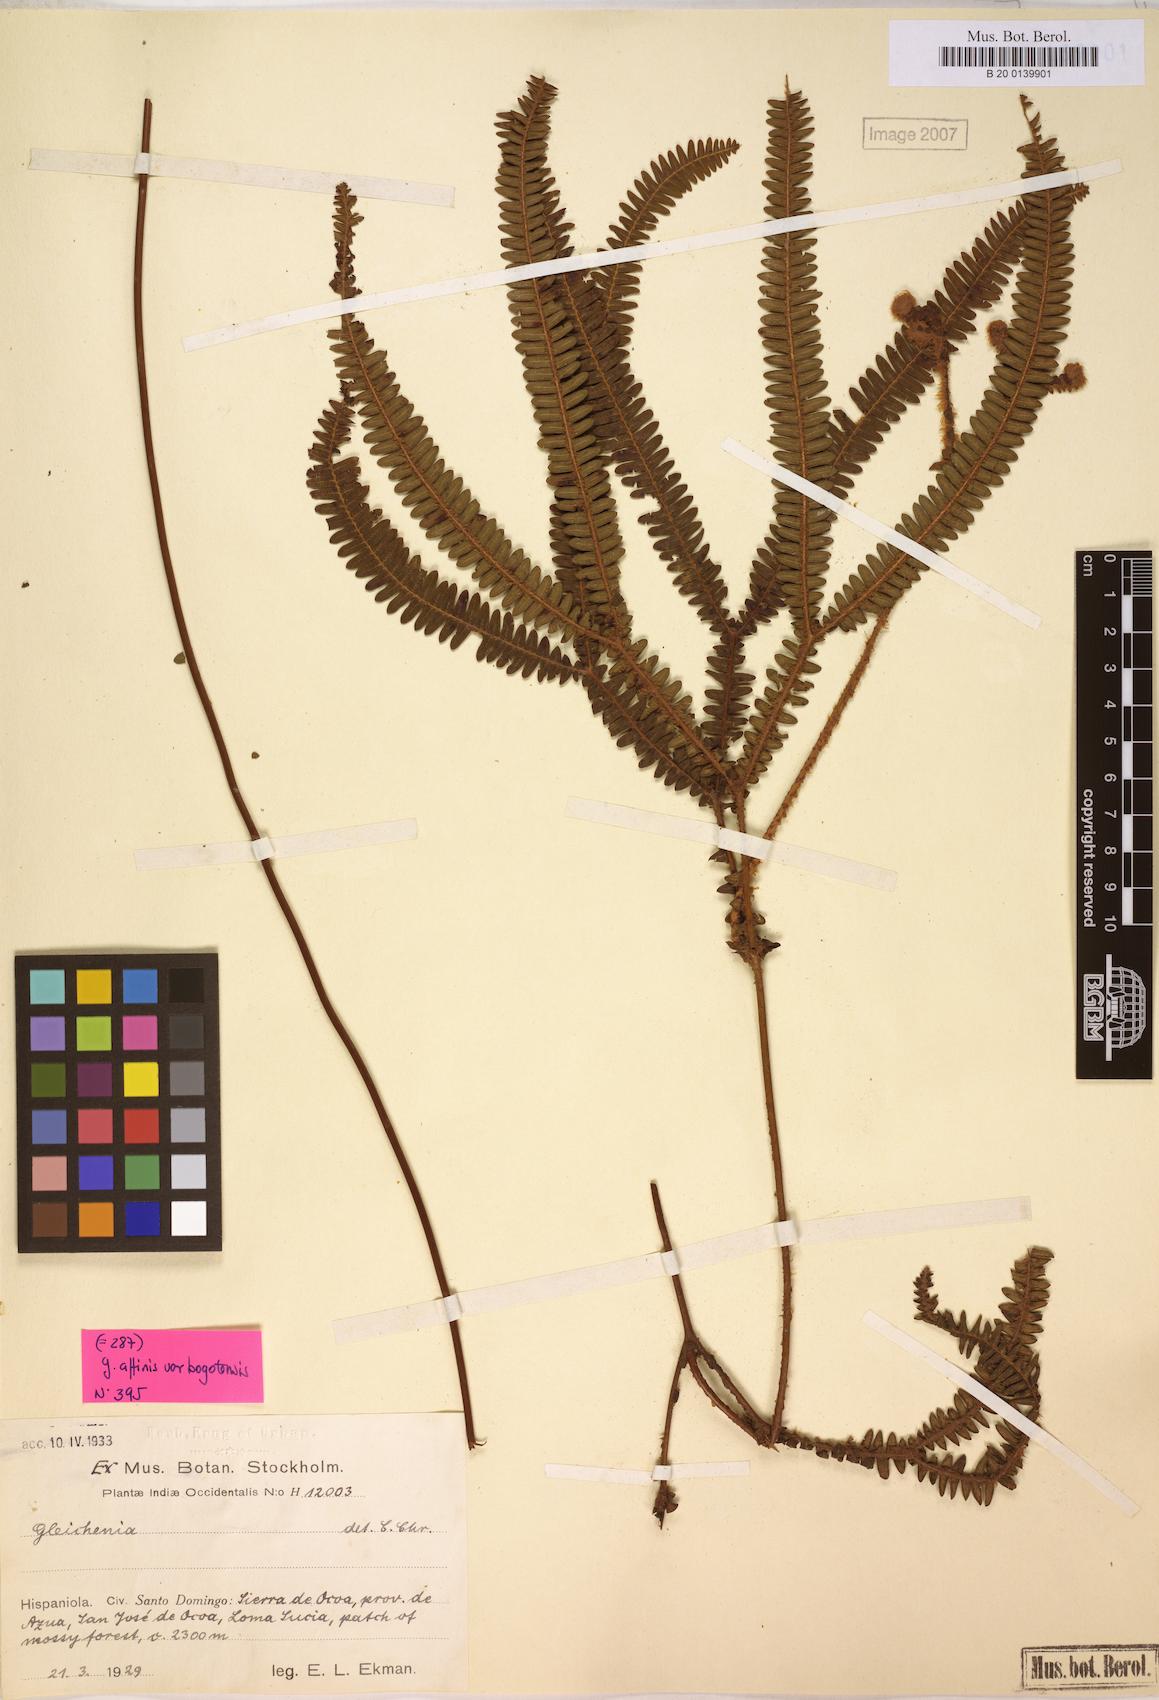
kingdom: Plantae
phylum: Tracheophyta
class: Polypodiopsida
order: Gleicheniales
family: Gleicheniaceae
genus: Sticherus
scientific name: Sticherus revolutus
